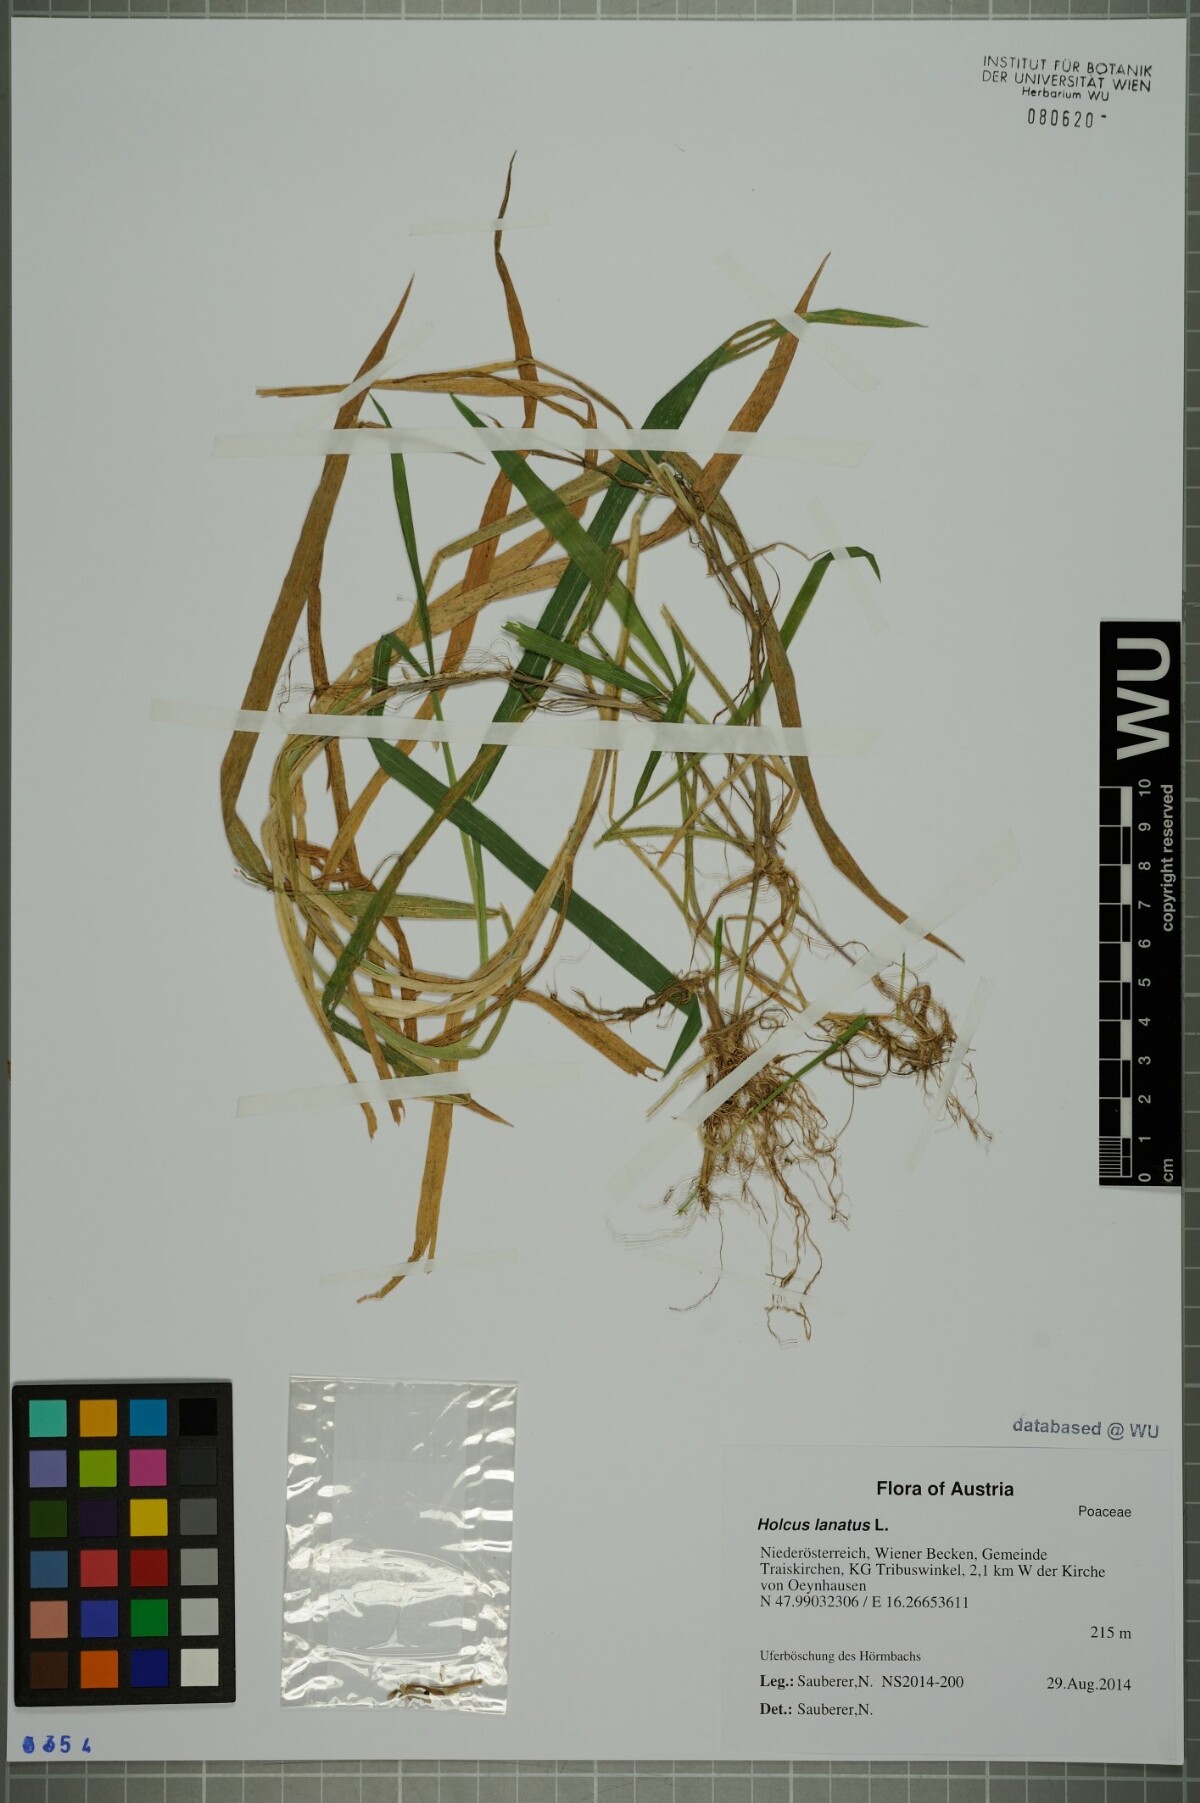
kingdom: Plantae
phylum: Tracheophyta
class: Liliopsida
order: Poales
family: Poaceae
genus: Holcus
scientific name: Holcus lanatus
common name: Yorkshire-fog
